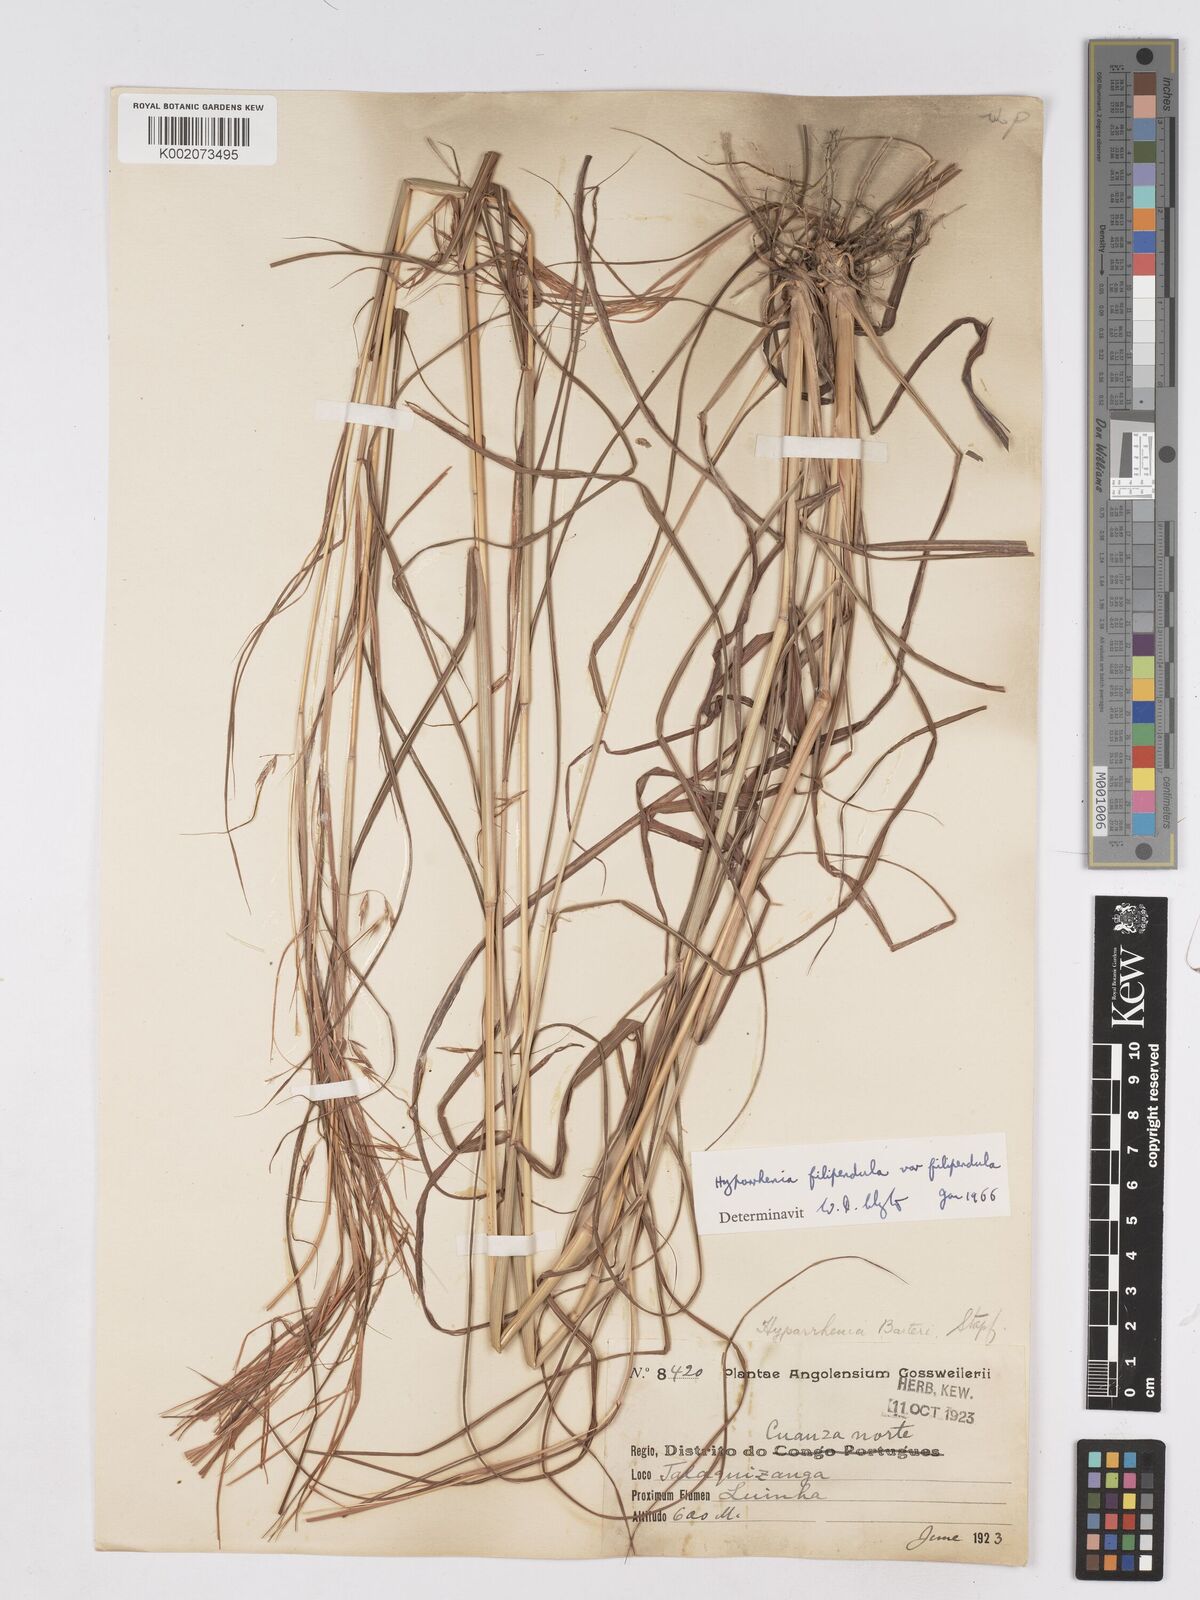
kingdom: Plantae
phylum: Tracheophyta
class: Liliopsida
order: Poales
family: Poaceae
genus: Hyparrhenia
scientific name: Hyparrhenia filipendula
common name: Tambookie grass
